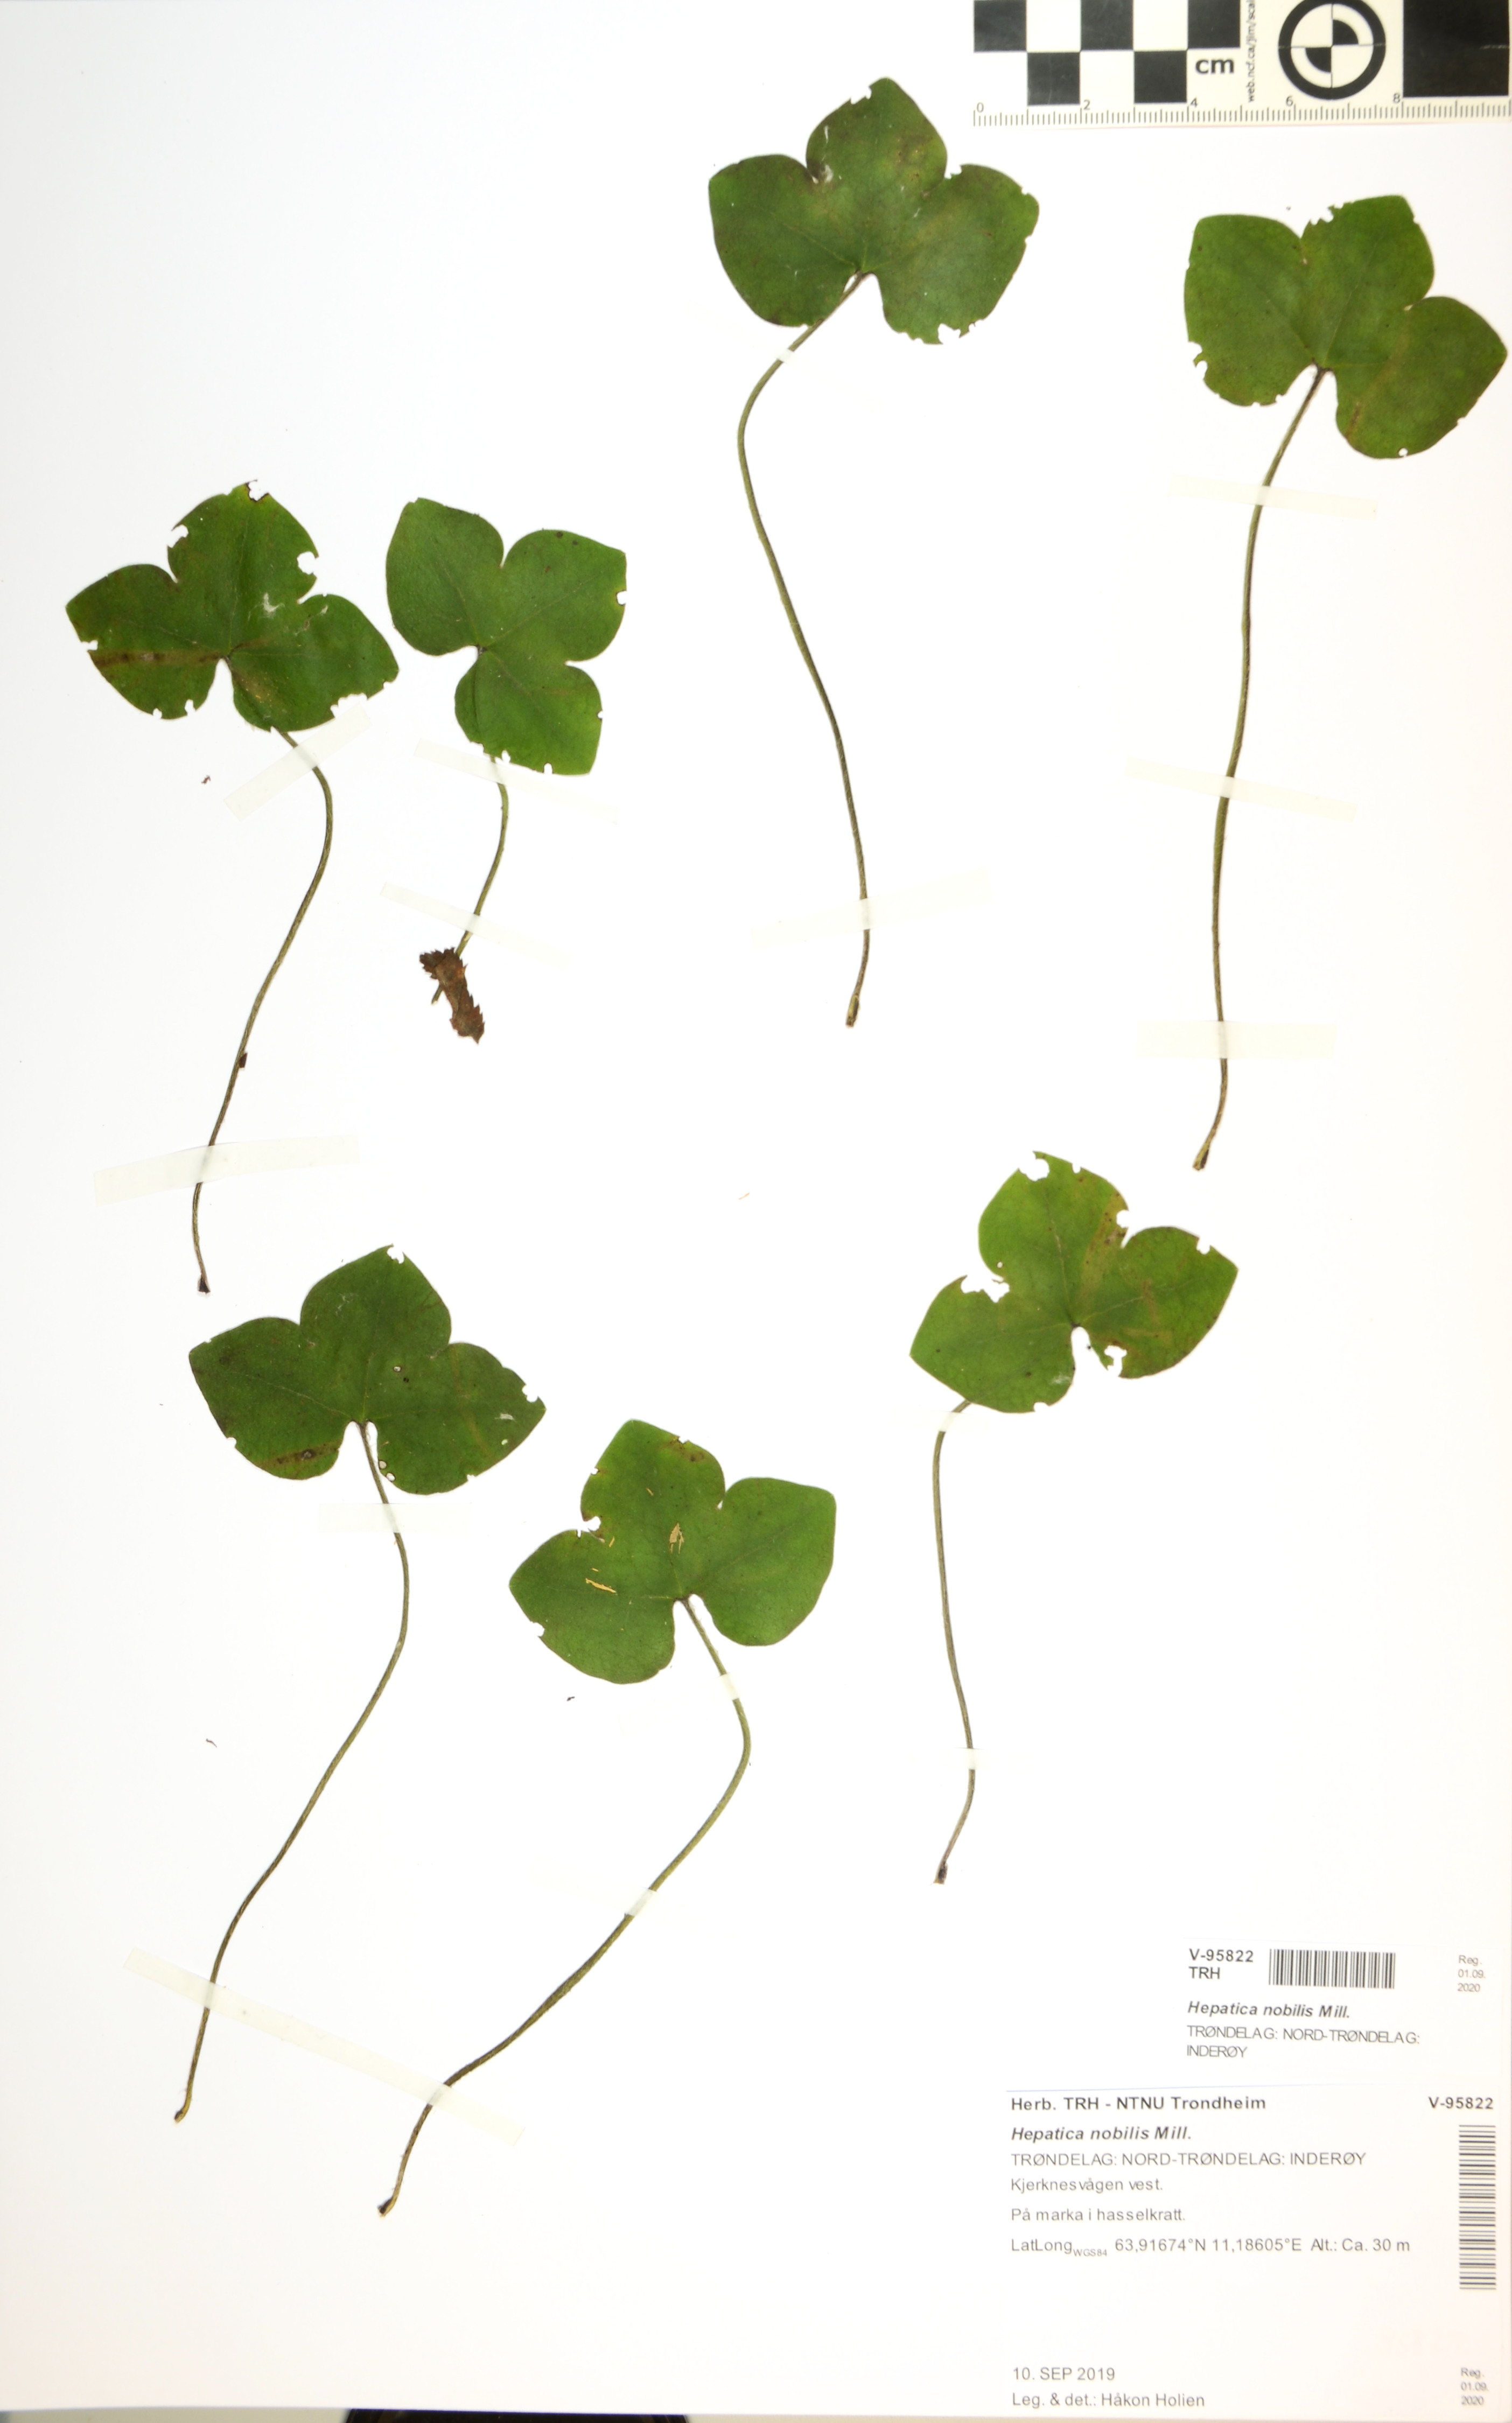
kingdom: Plantae
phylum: Tracheophyta
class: Magnoliopsida
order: Ranunculales
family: Ranunculaceae
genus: Hepatica
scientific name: Hepatica nobilis
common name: Liverleaf
